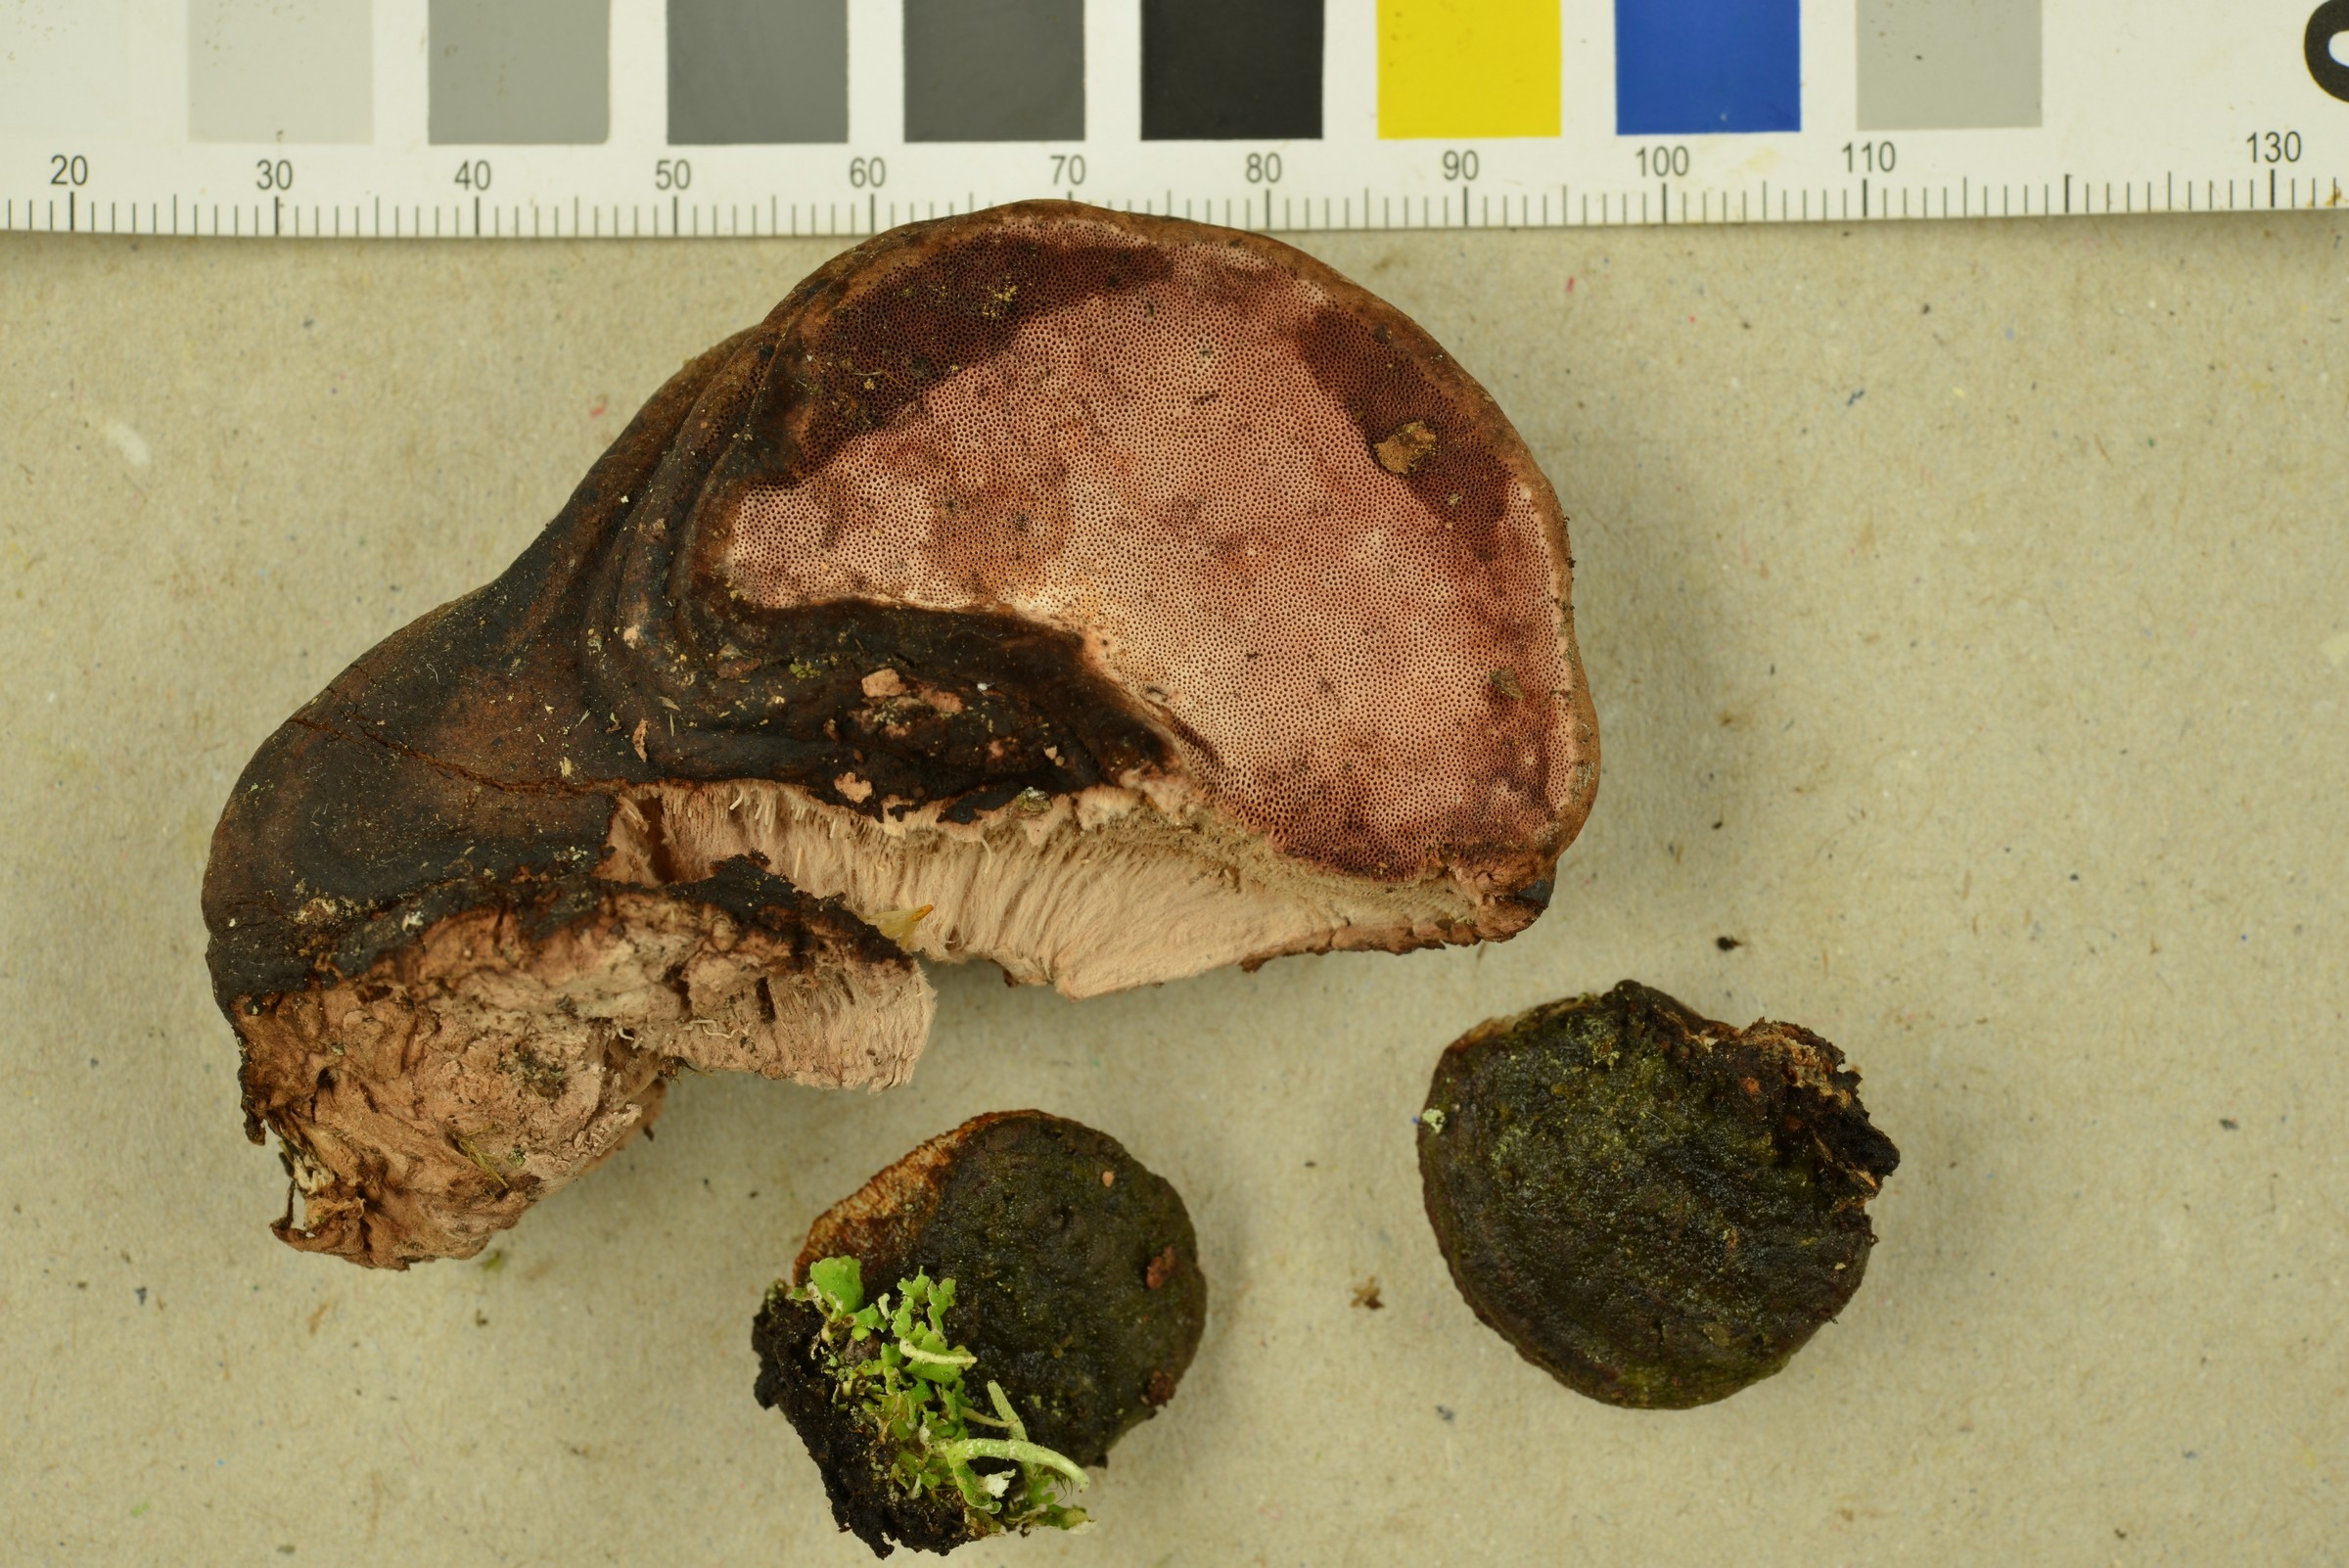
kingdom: Fungi
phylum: Basidiomycota
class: Agaricomycetes
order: Polyporales
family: Fomitopsidaceae
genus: Rhodofomes
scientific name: Rhodofomes roseus
